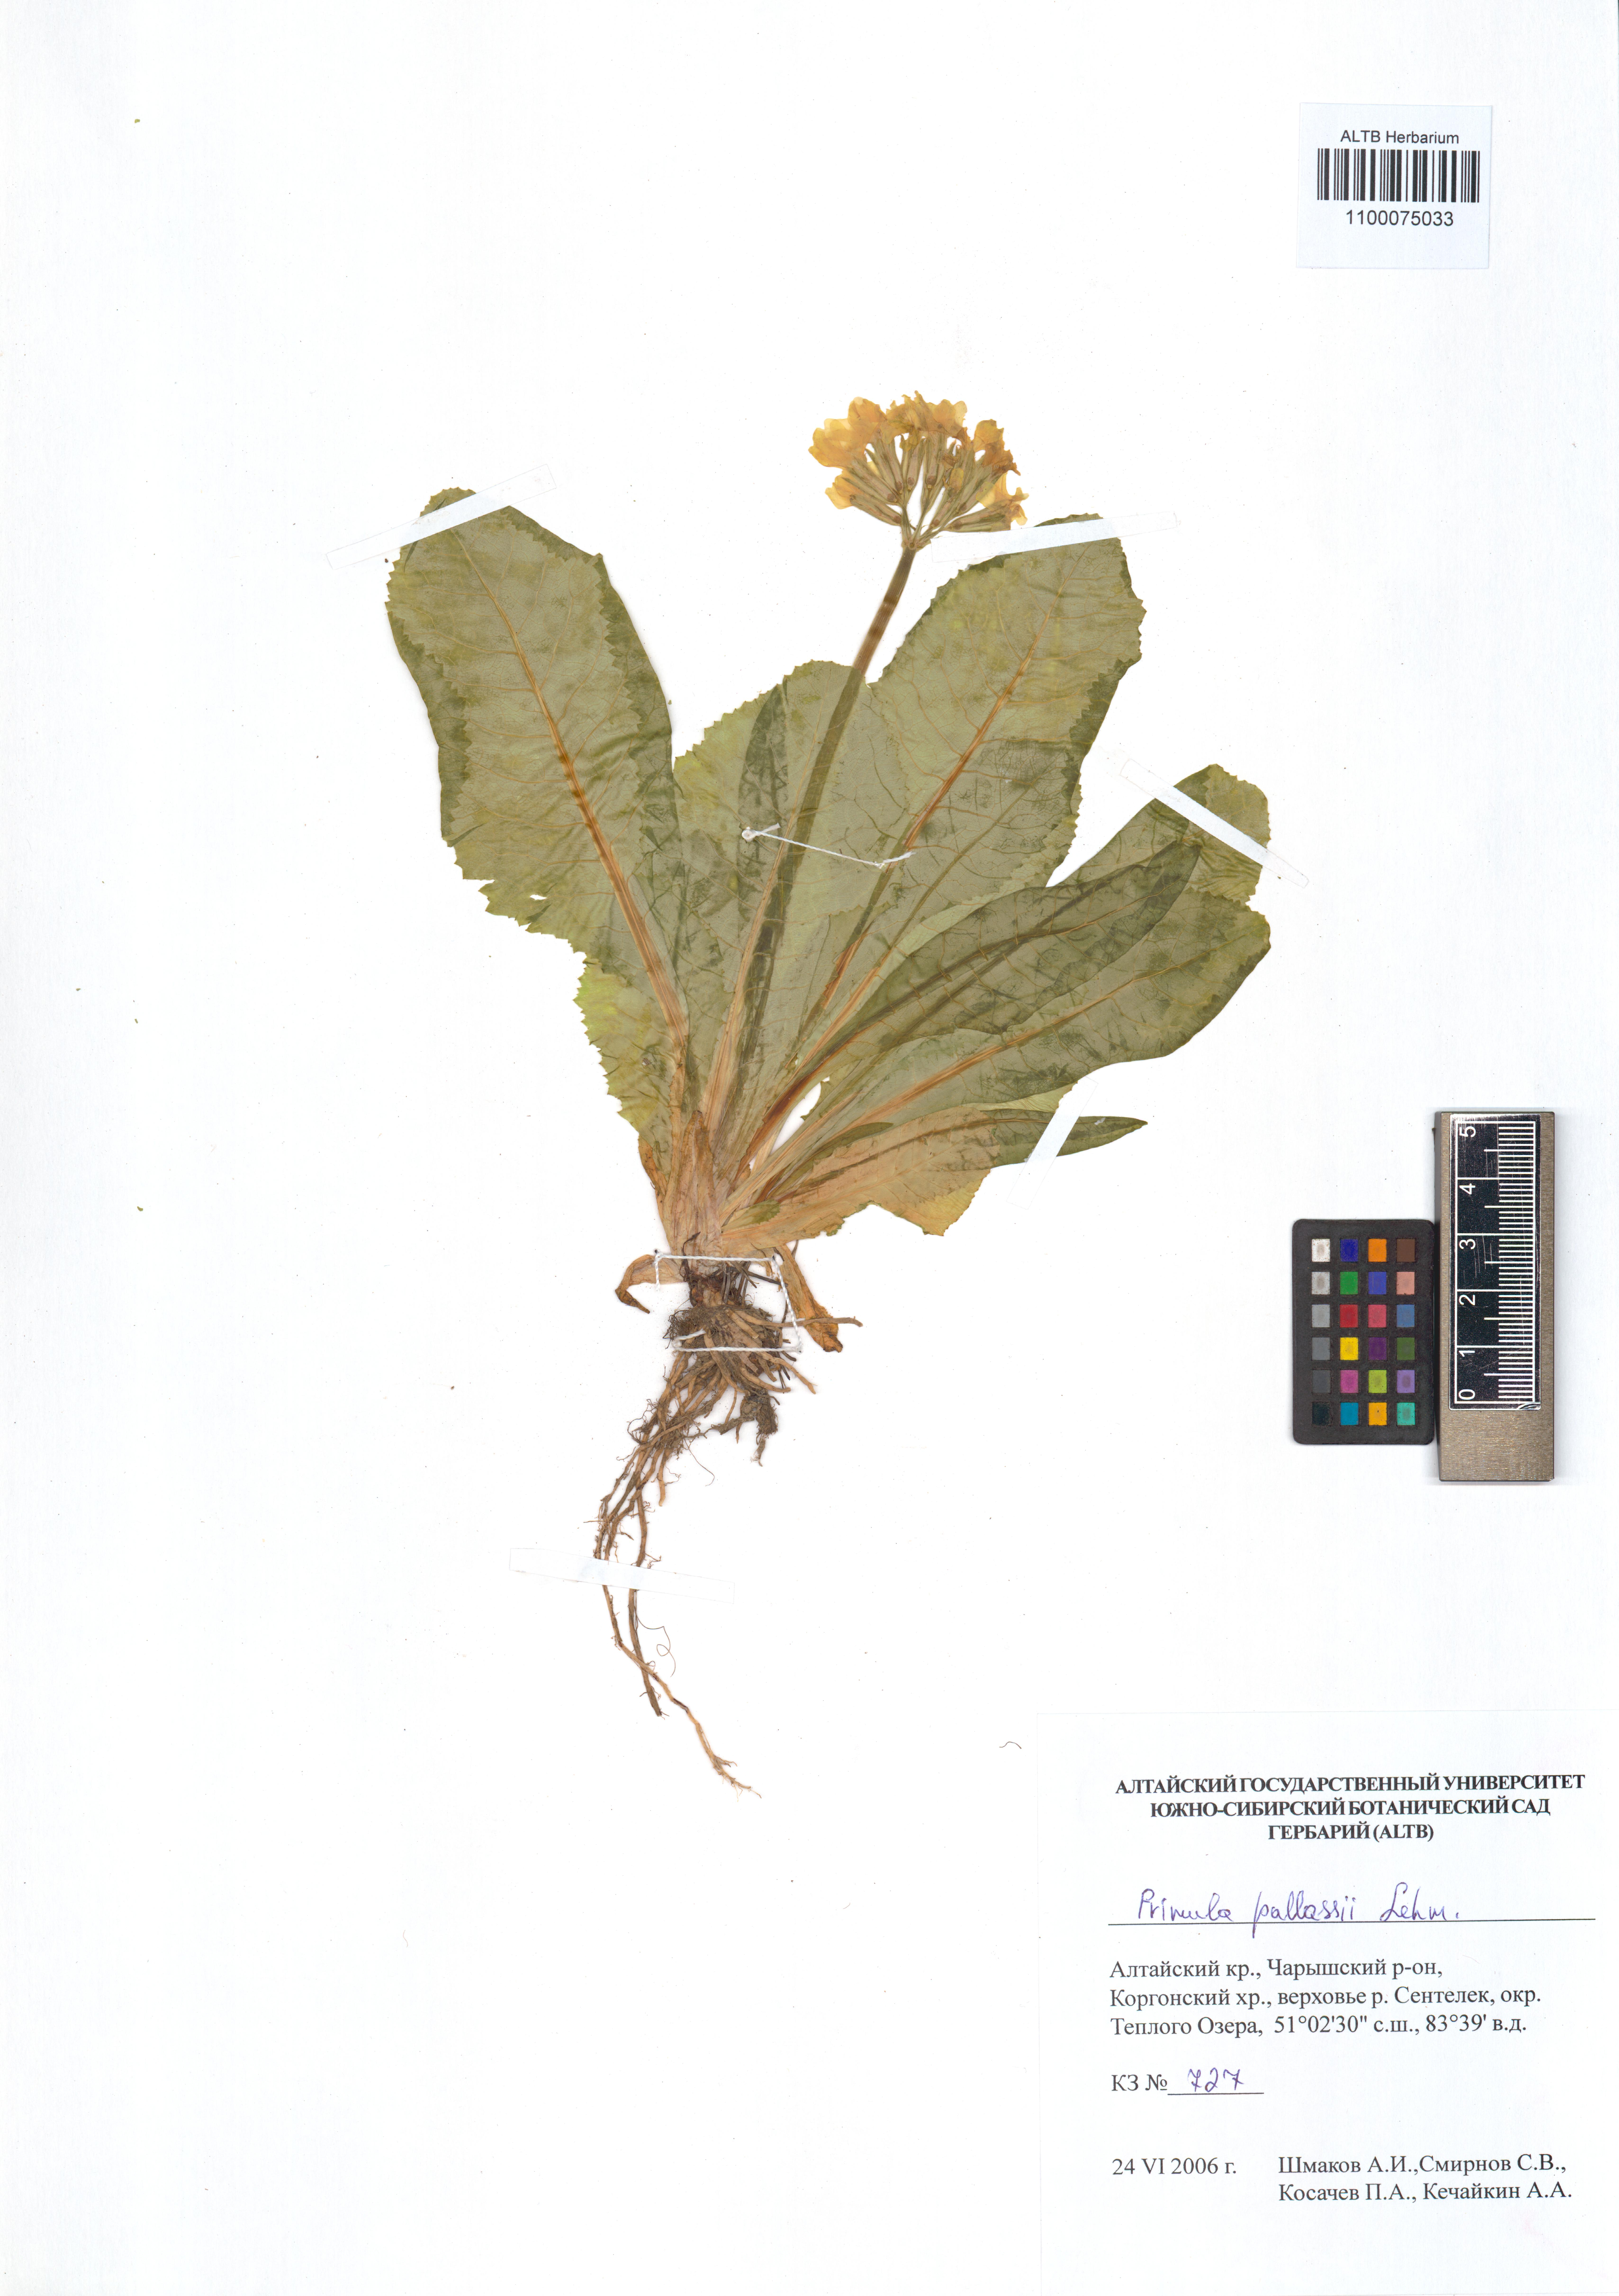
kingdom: Plantae
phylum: Tracheophyta
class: Magnoliopsida
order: Ericales
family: Primulaceae
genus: Primula
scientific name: Primula elatior
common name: Oxlip
